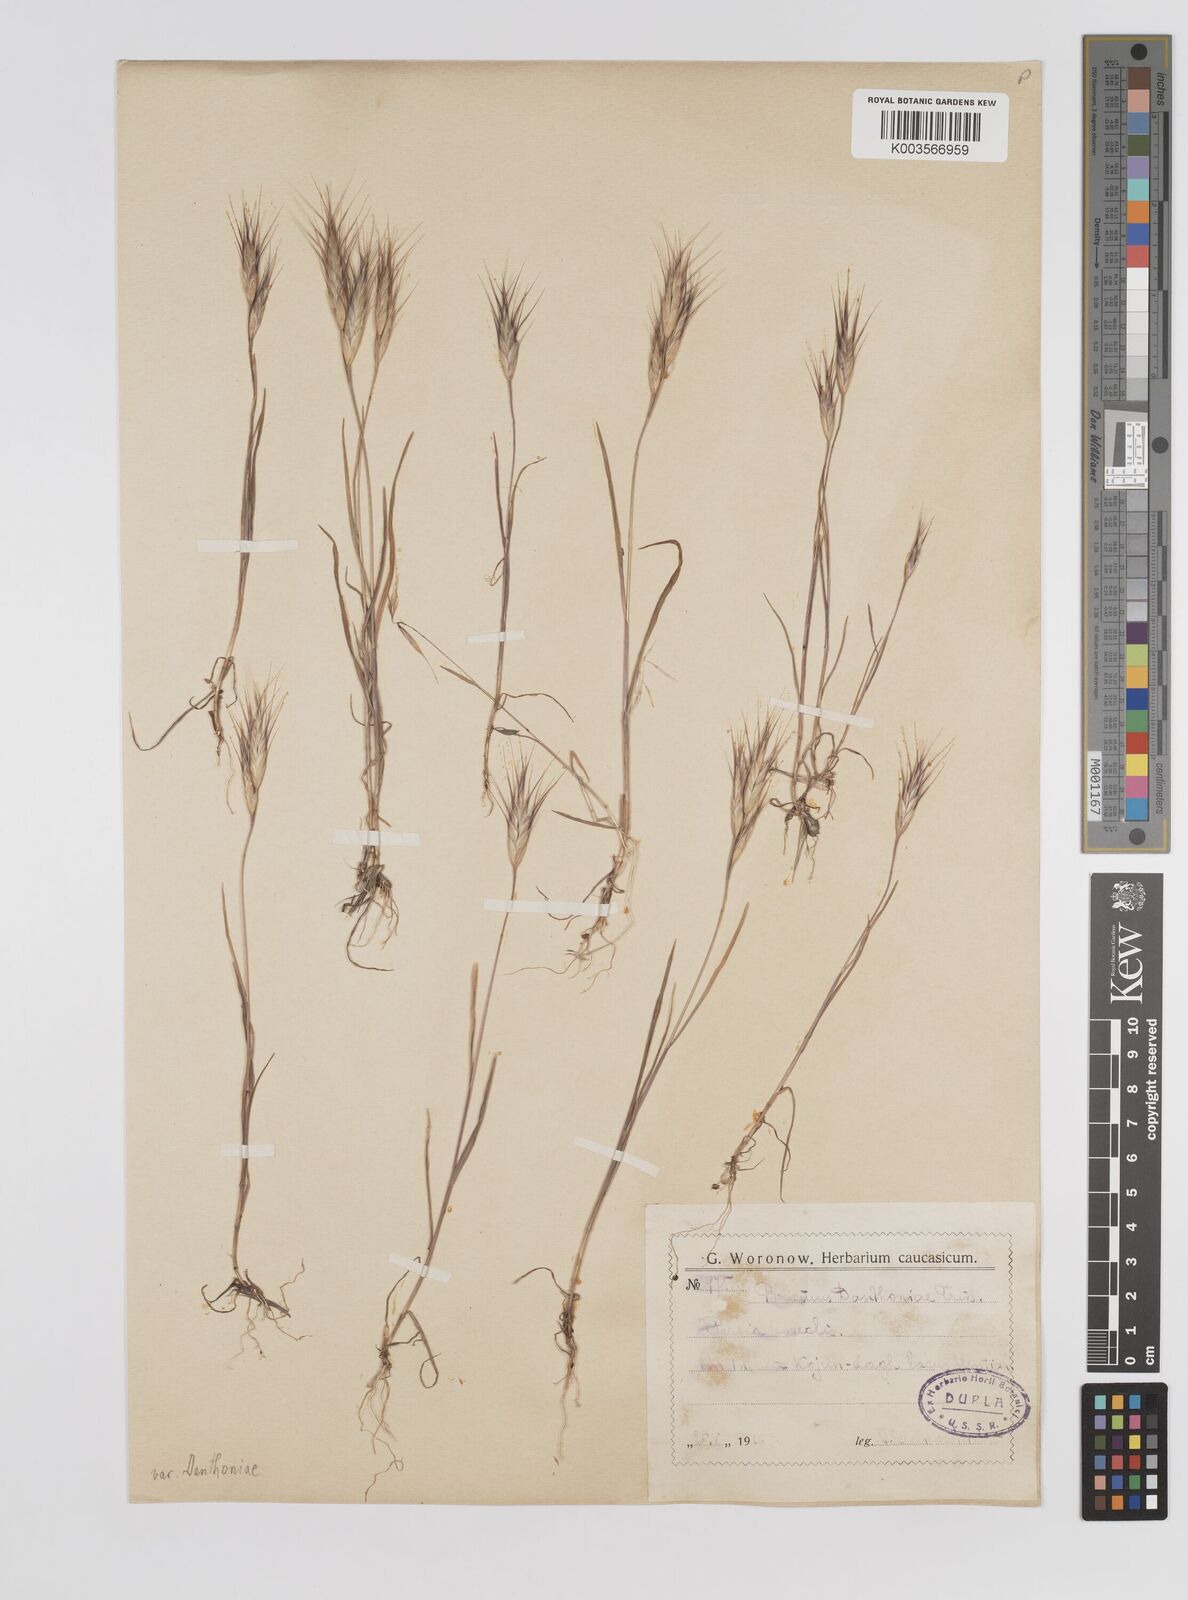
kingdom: Plantae
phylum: Tracheophyta
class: Liliopsida
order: Poales
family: Poaceae
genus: Bromus
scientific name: Bromus danthoniae
